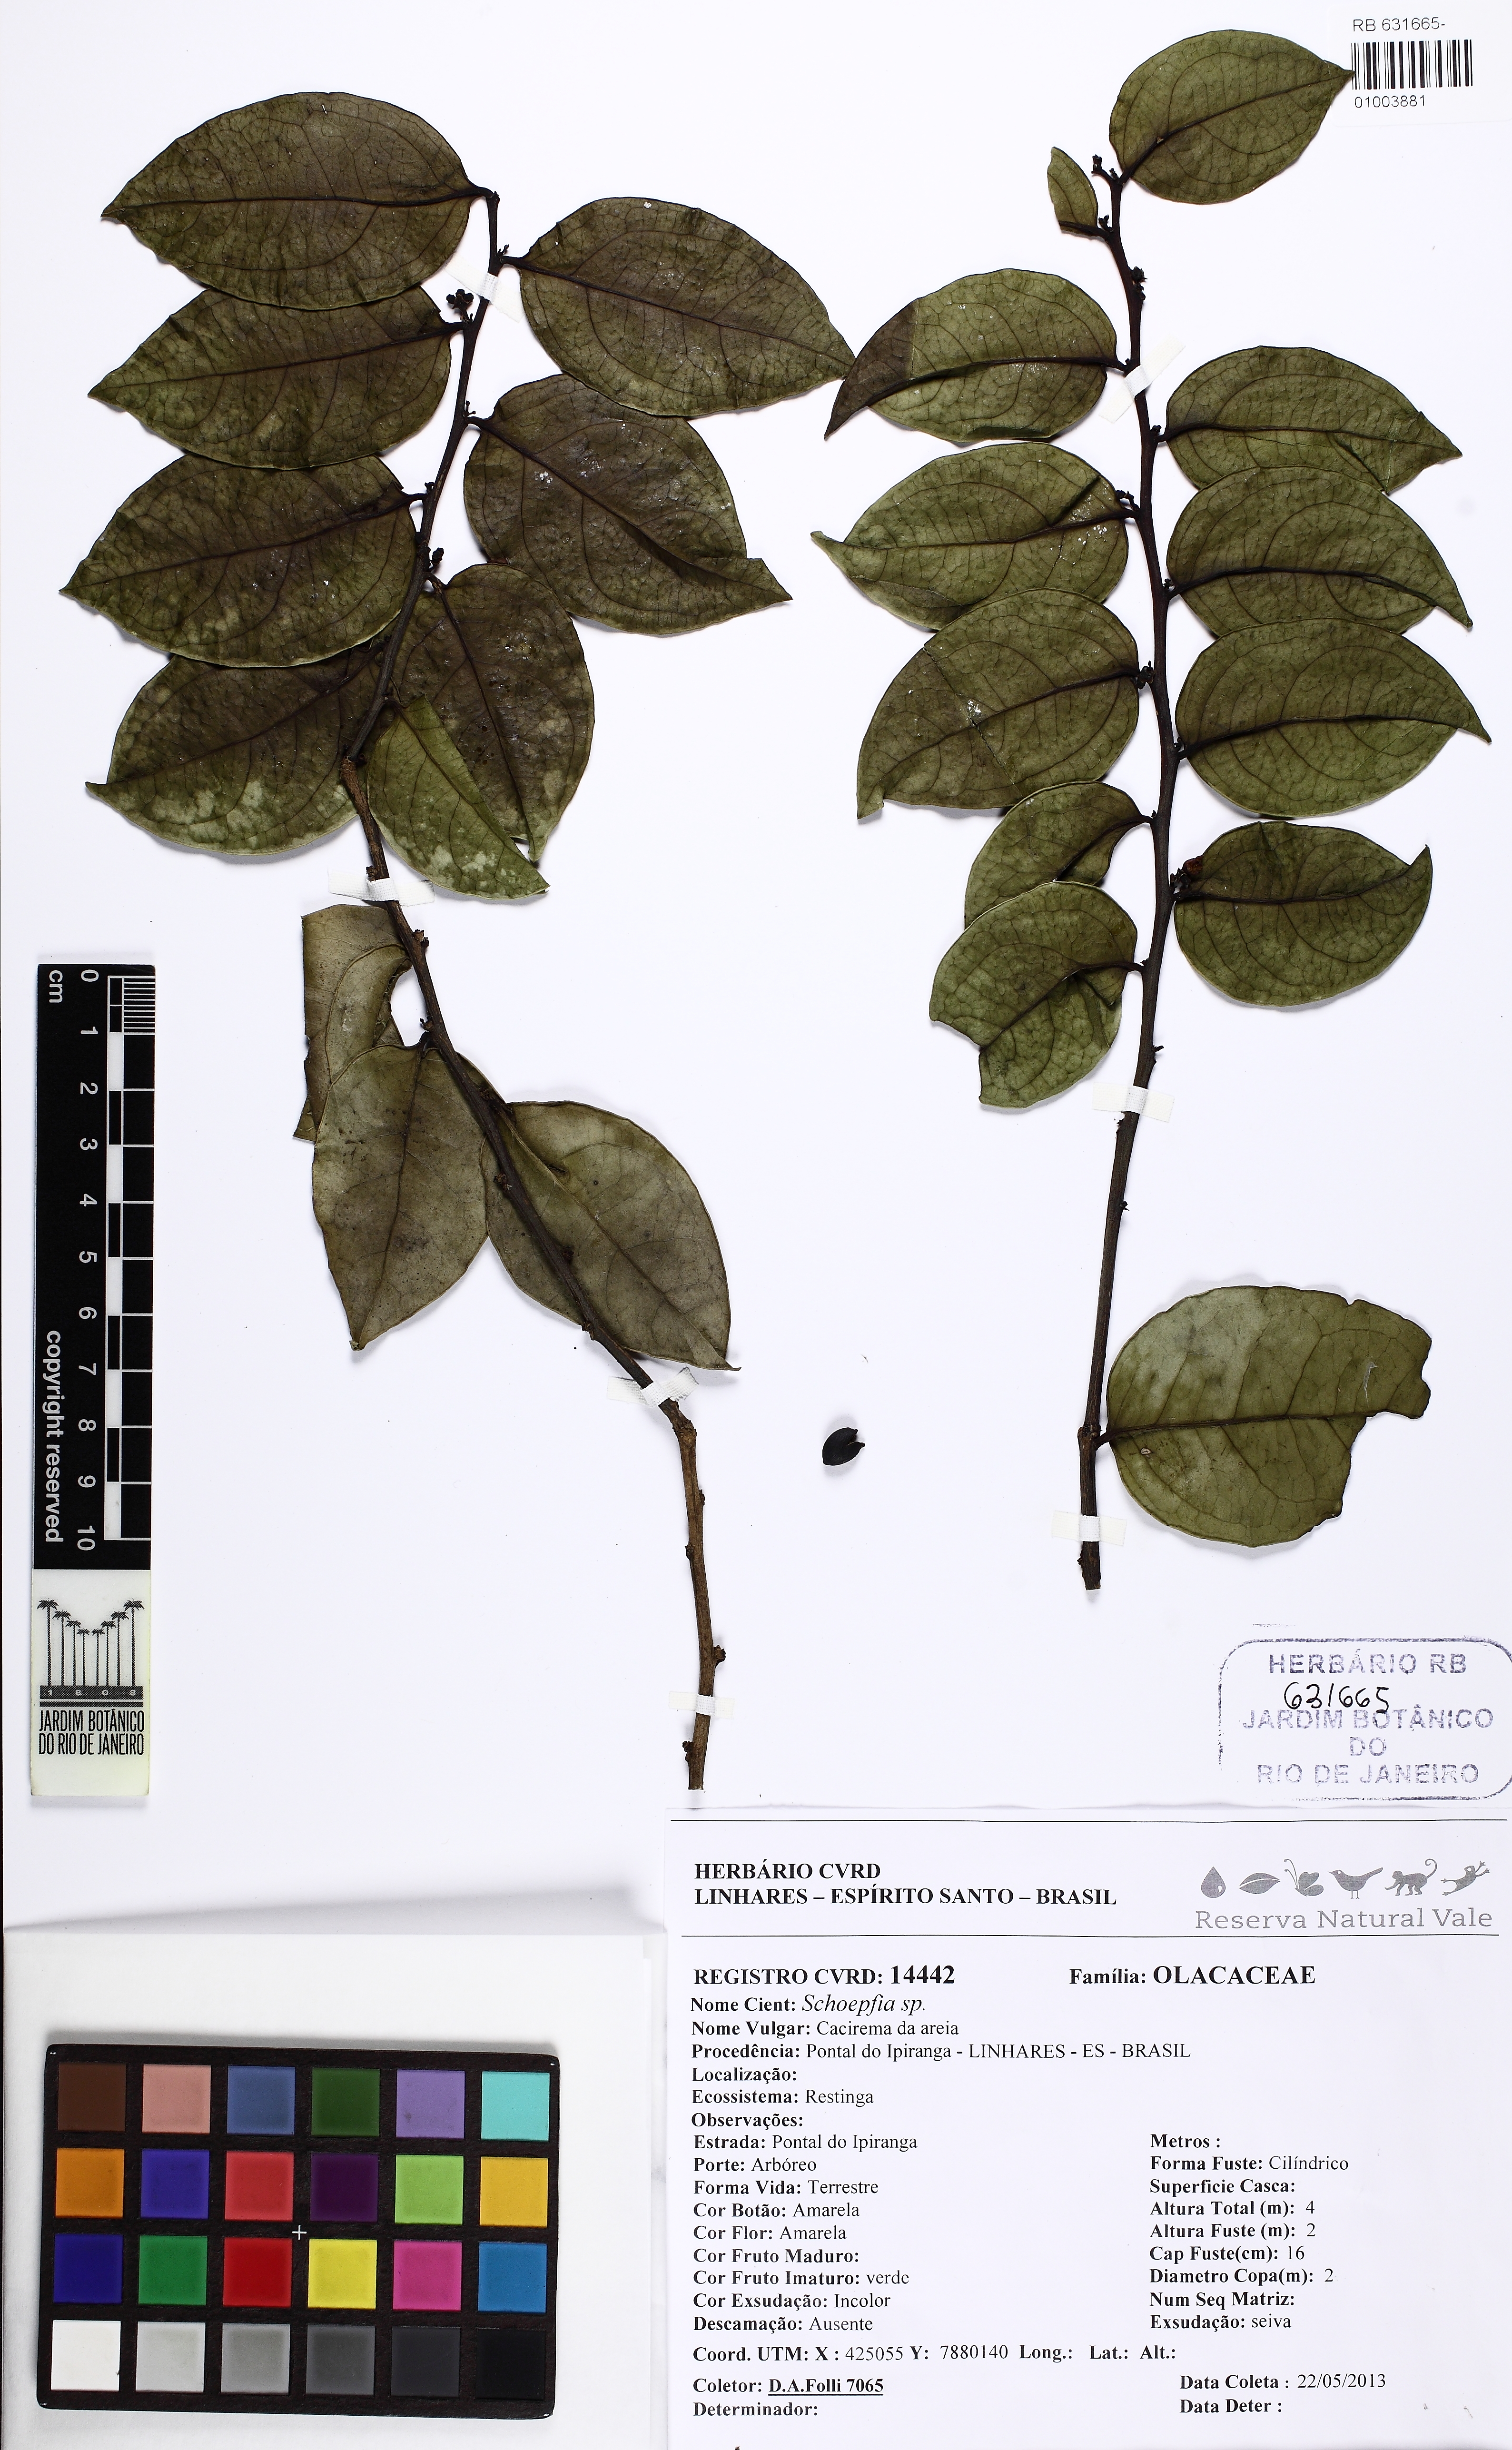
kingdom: Plantae
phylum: Tracheophyta
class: Magnoliopsida
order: Santalales
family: Schoepfiaceae
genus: Schoepfia
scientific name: Schoepfia
